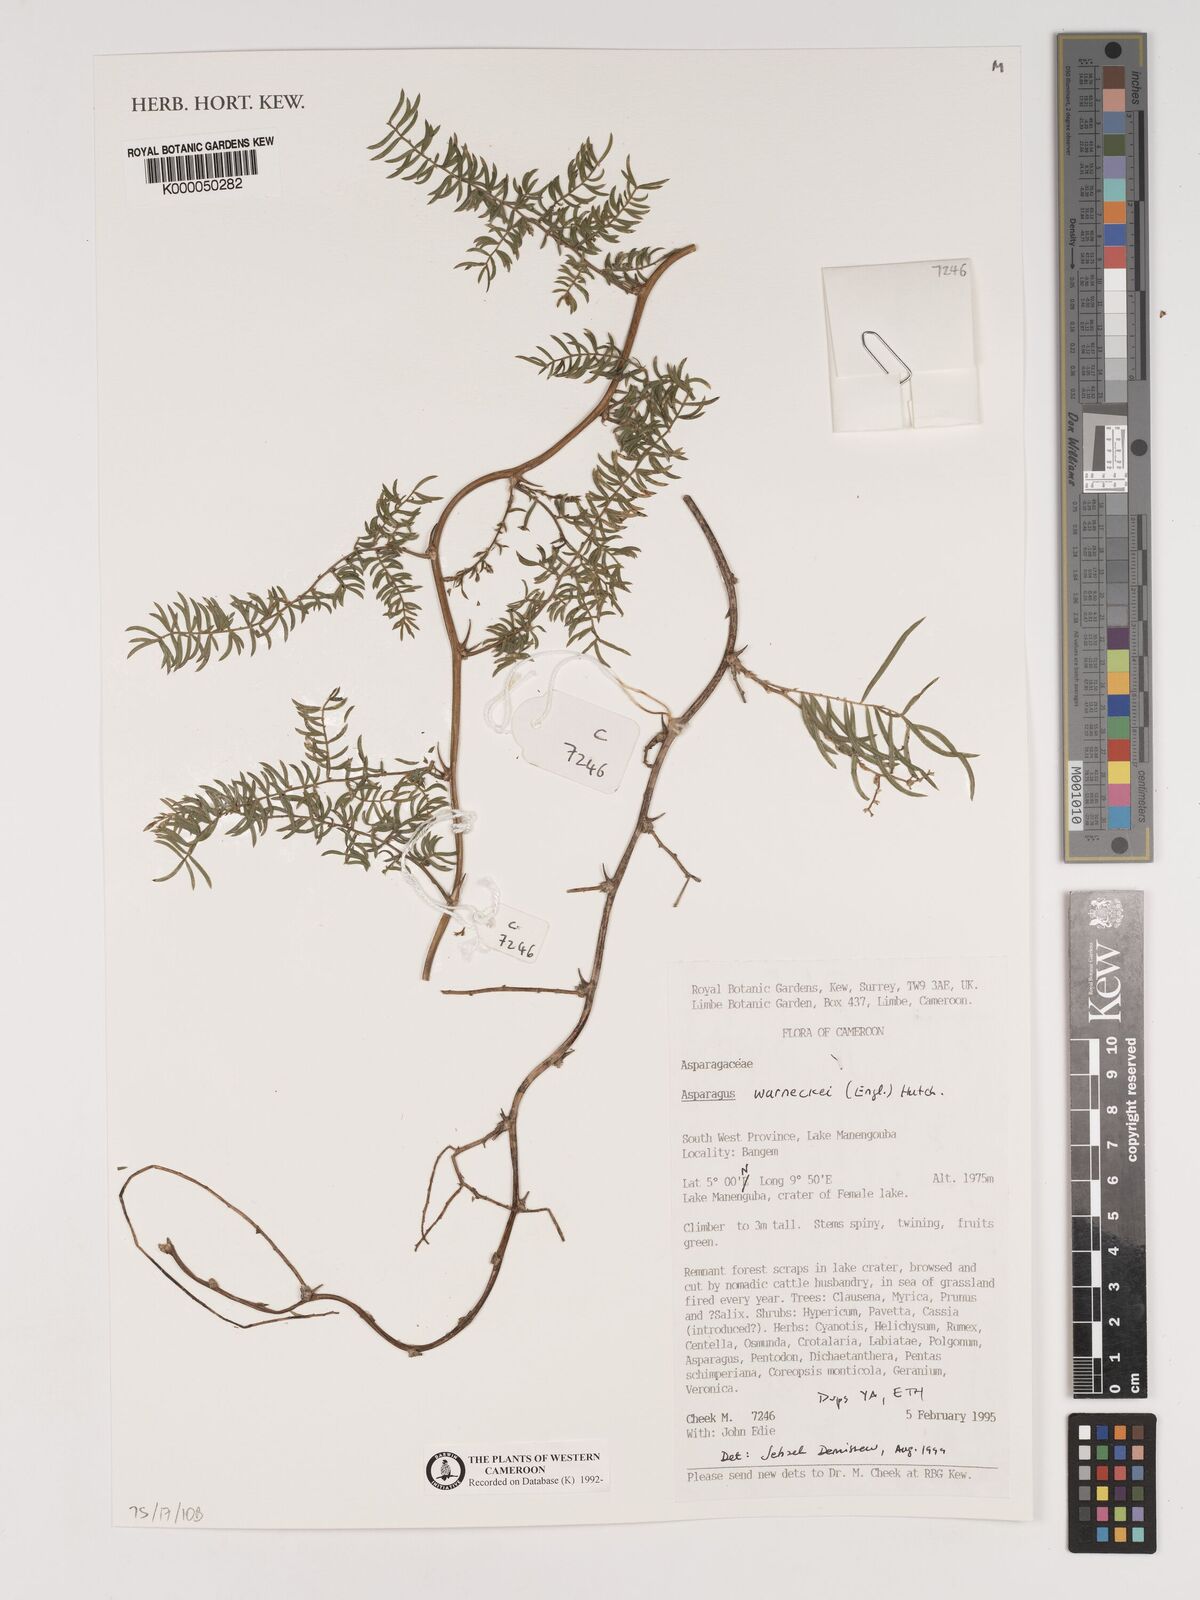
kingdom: Plantae
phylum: Tracheophyta
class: Liliopsida
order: Asparagales
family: Asparagaceae
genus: Asparagus
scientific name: Asparagus warneckei
